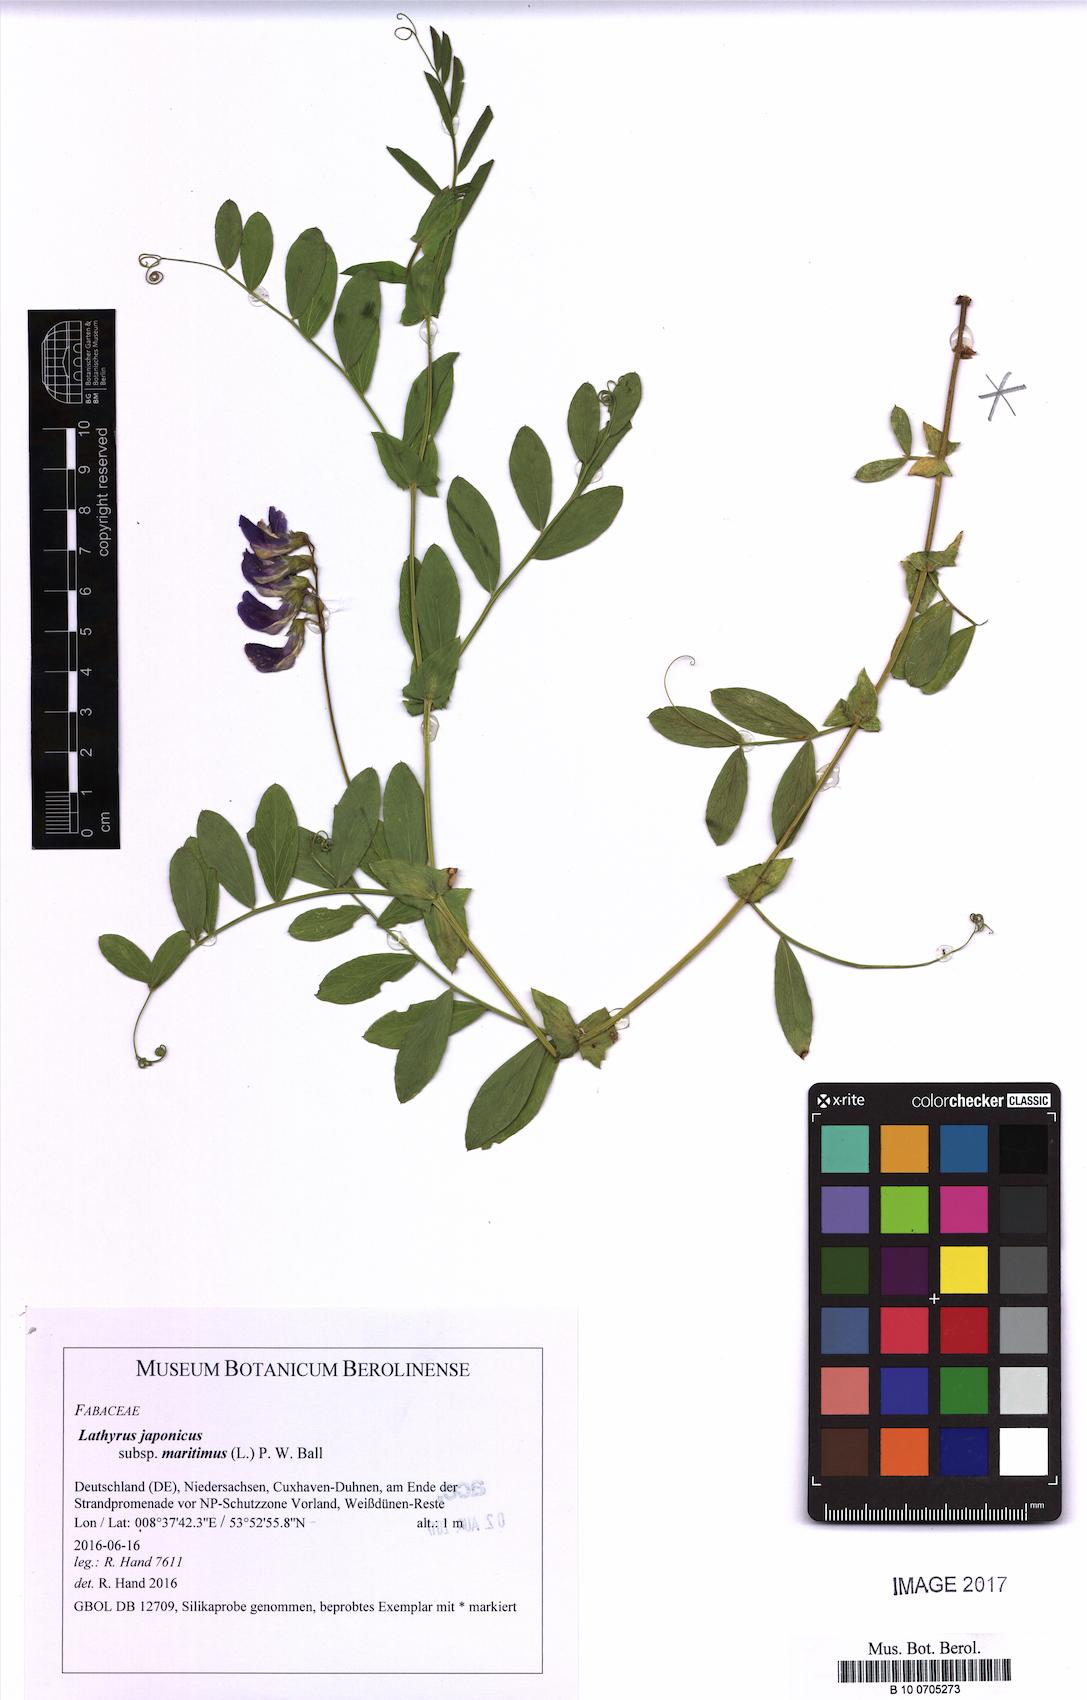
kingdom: Plantae
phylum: Tracheophyta
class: Magnoliopsida
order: Fabales
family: Fabaceae
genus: Lathyrus
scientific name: Lathyrus japonicus
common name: Sea pea
